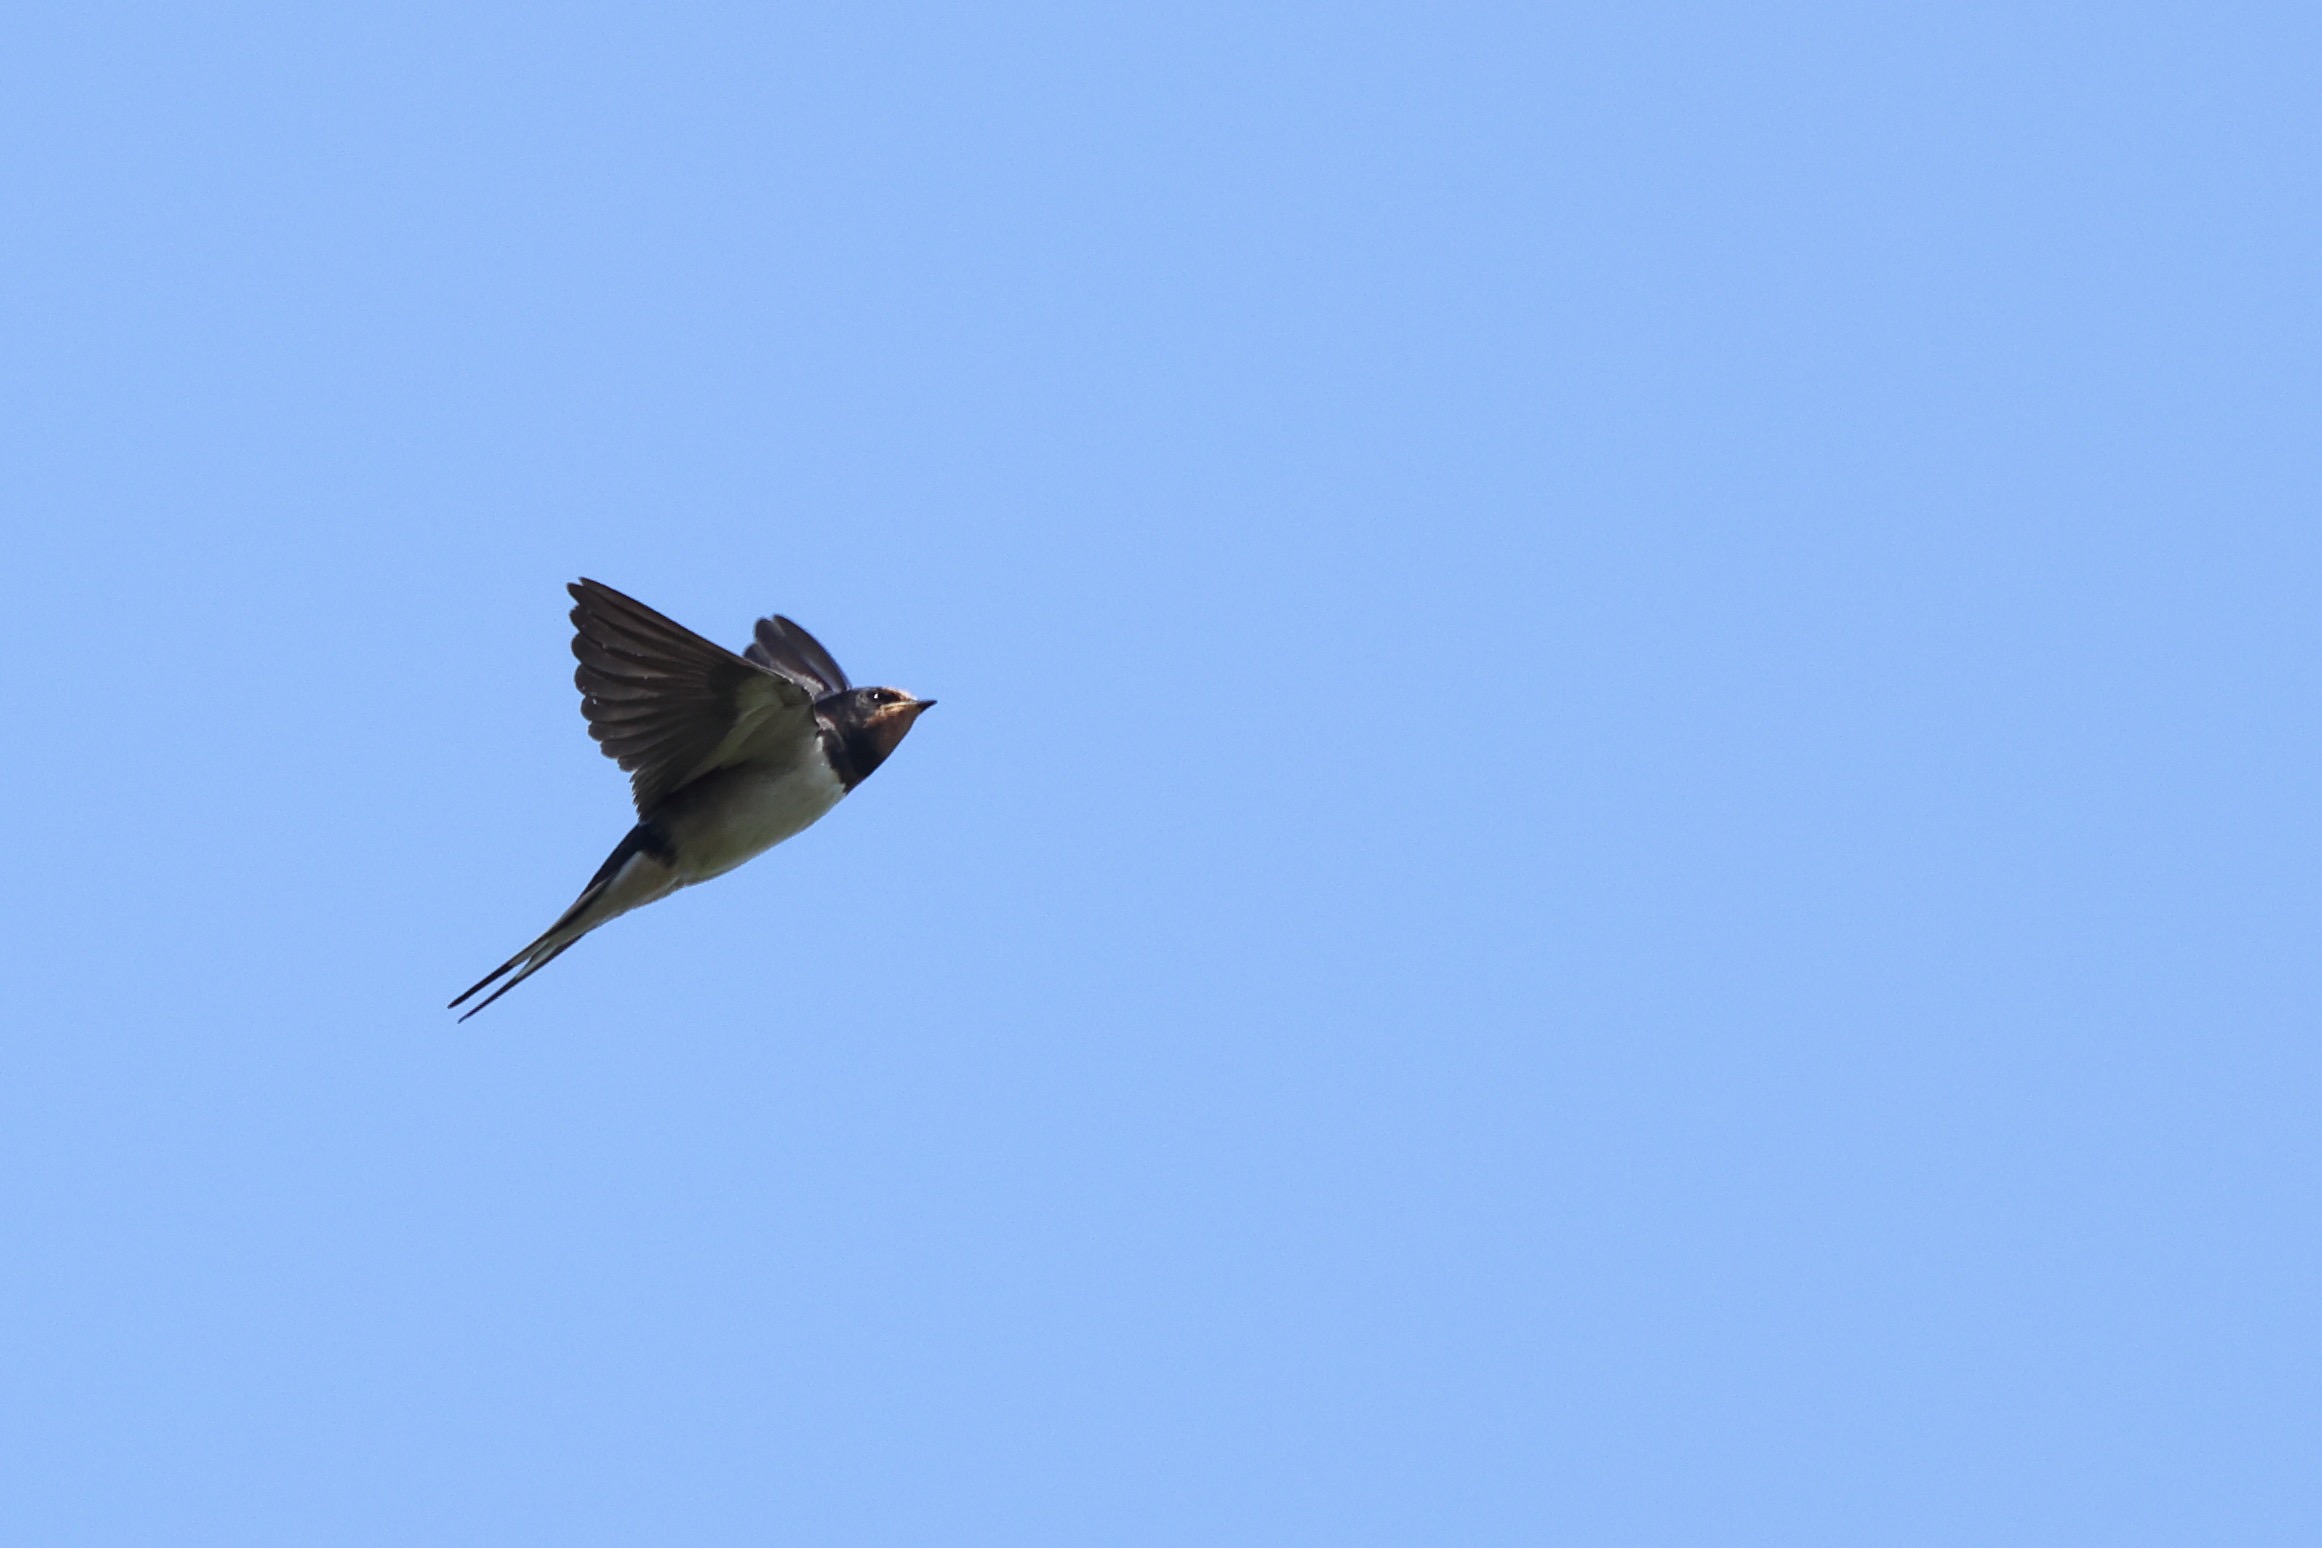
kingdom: Animalia
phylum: Chordata
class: Aves
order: Passeriformes
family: Hirundinidae
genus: Hirundo
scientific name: Hirundo rustica
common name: Landsvale
